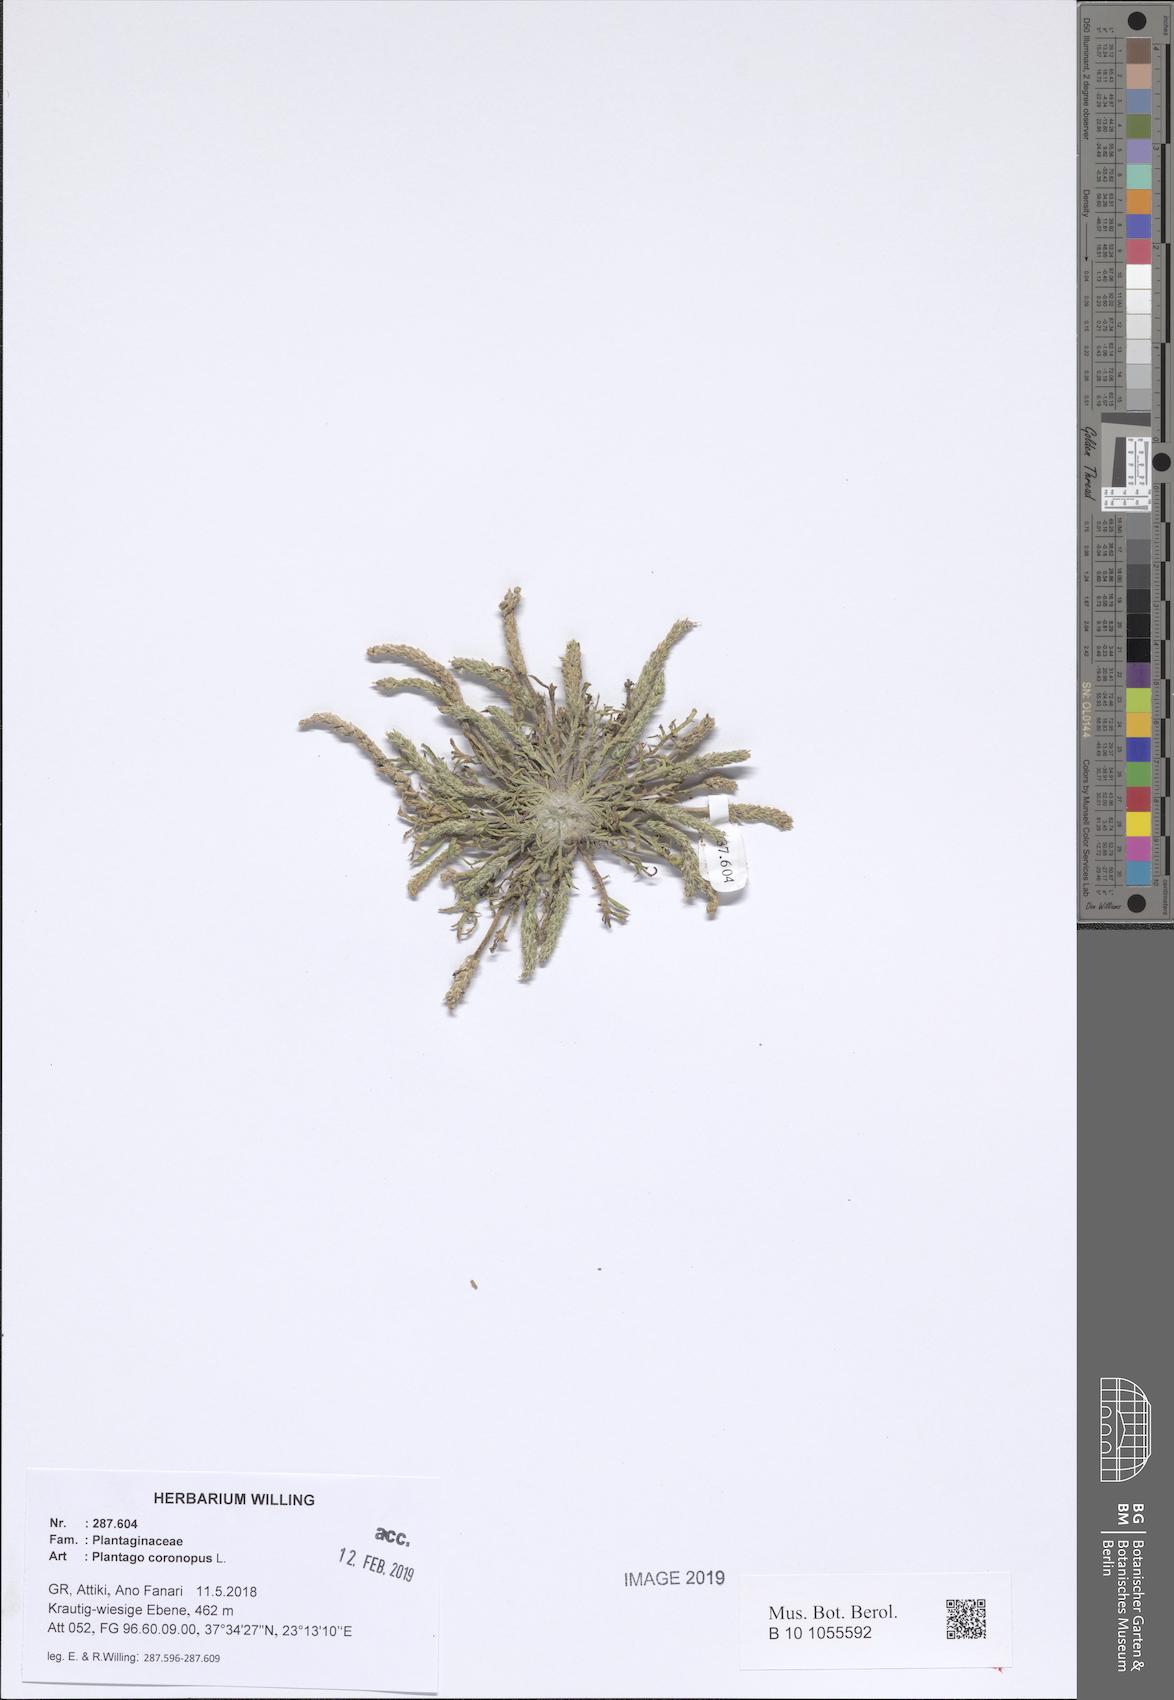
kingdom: Plantae
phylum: Tracheophyta
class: Magnoliopsida
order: Lamiales
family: Plantaginaceae
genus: Plantago
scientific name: Plantago coronopus
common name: Buck's-horn plantain
